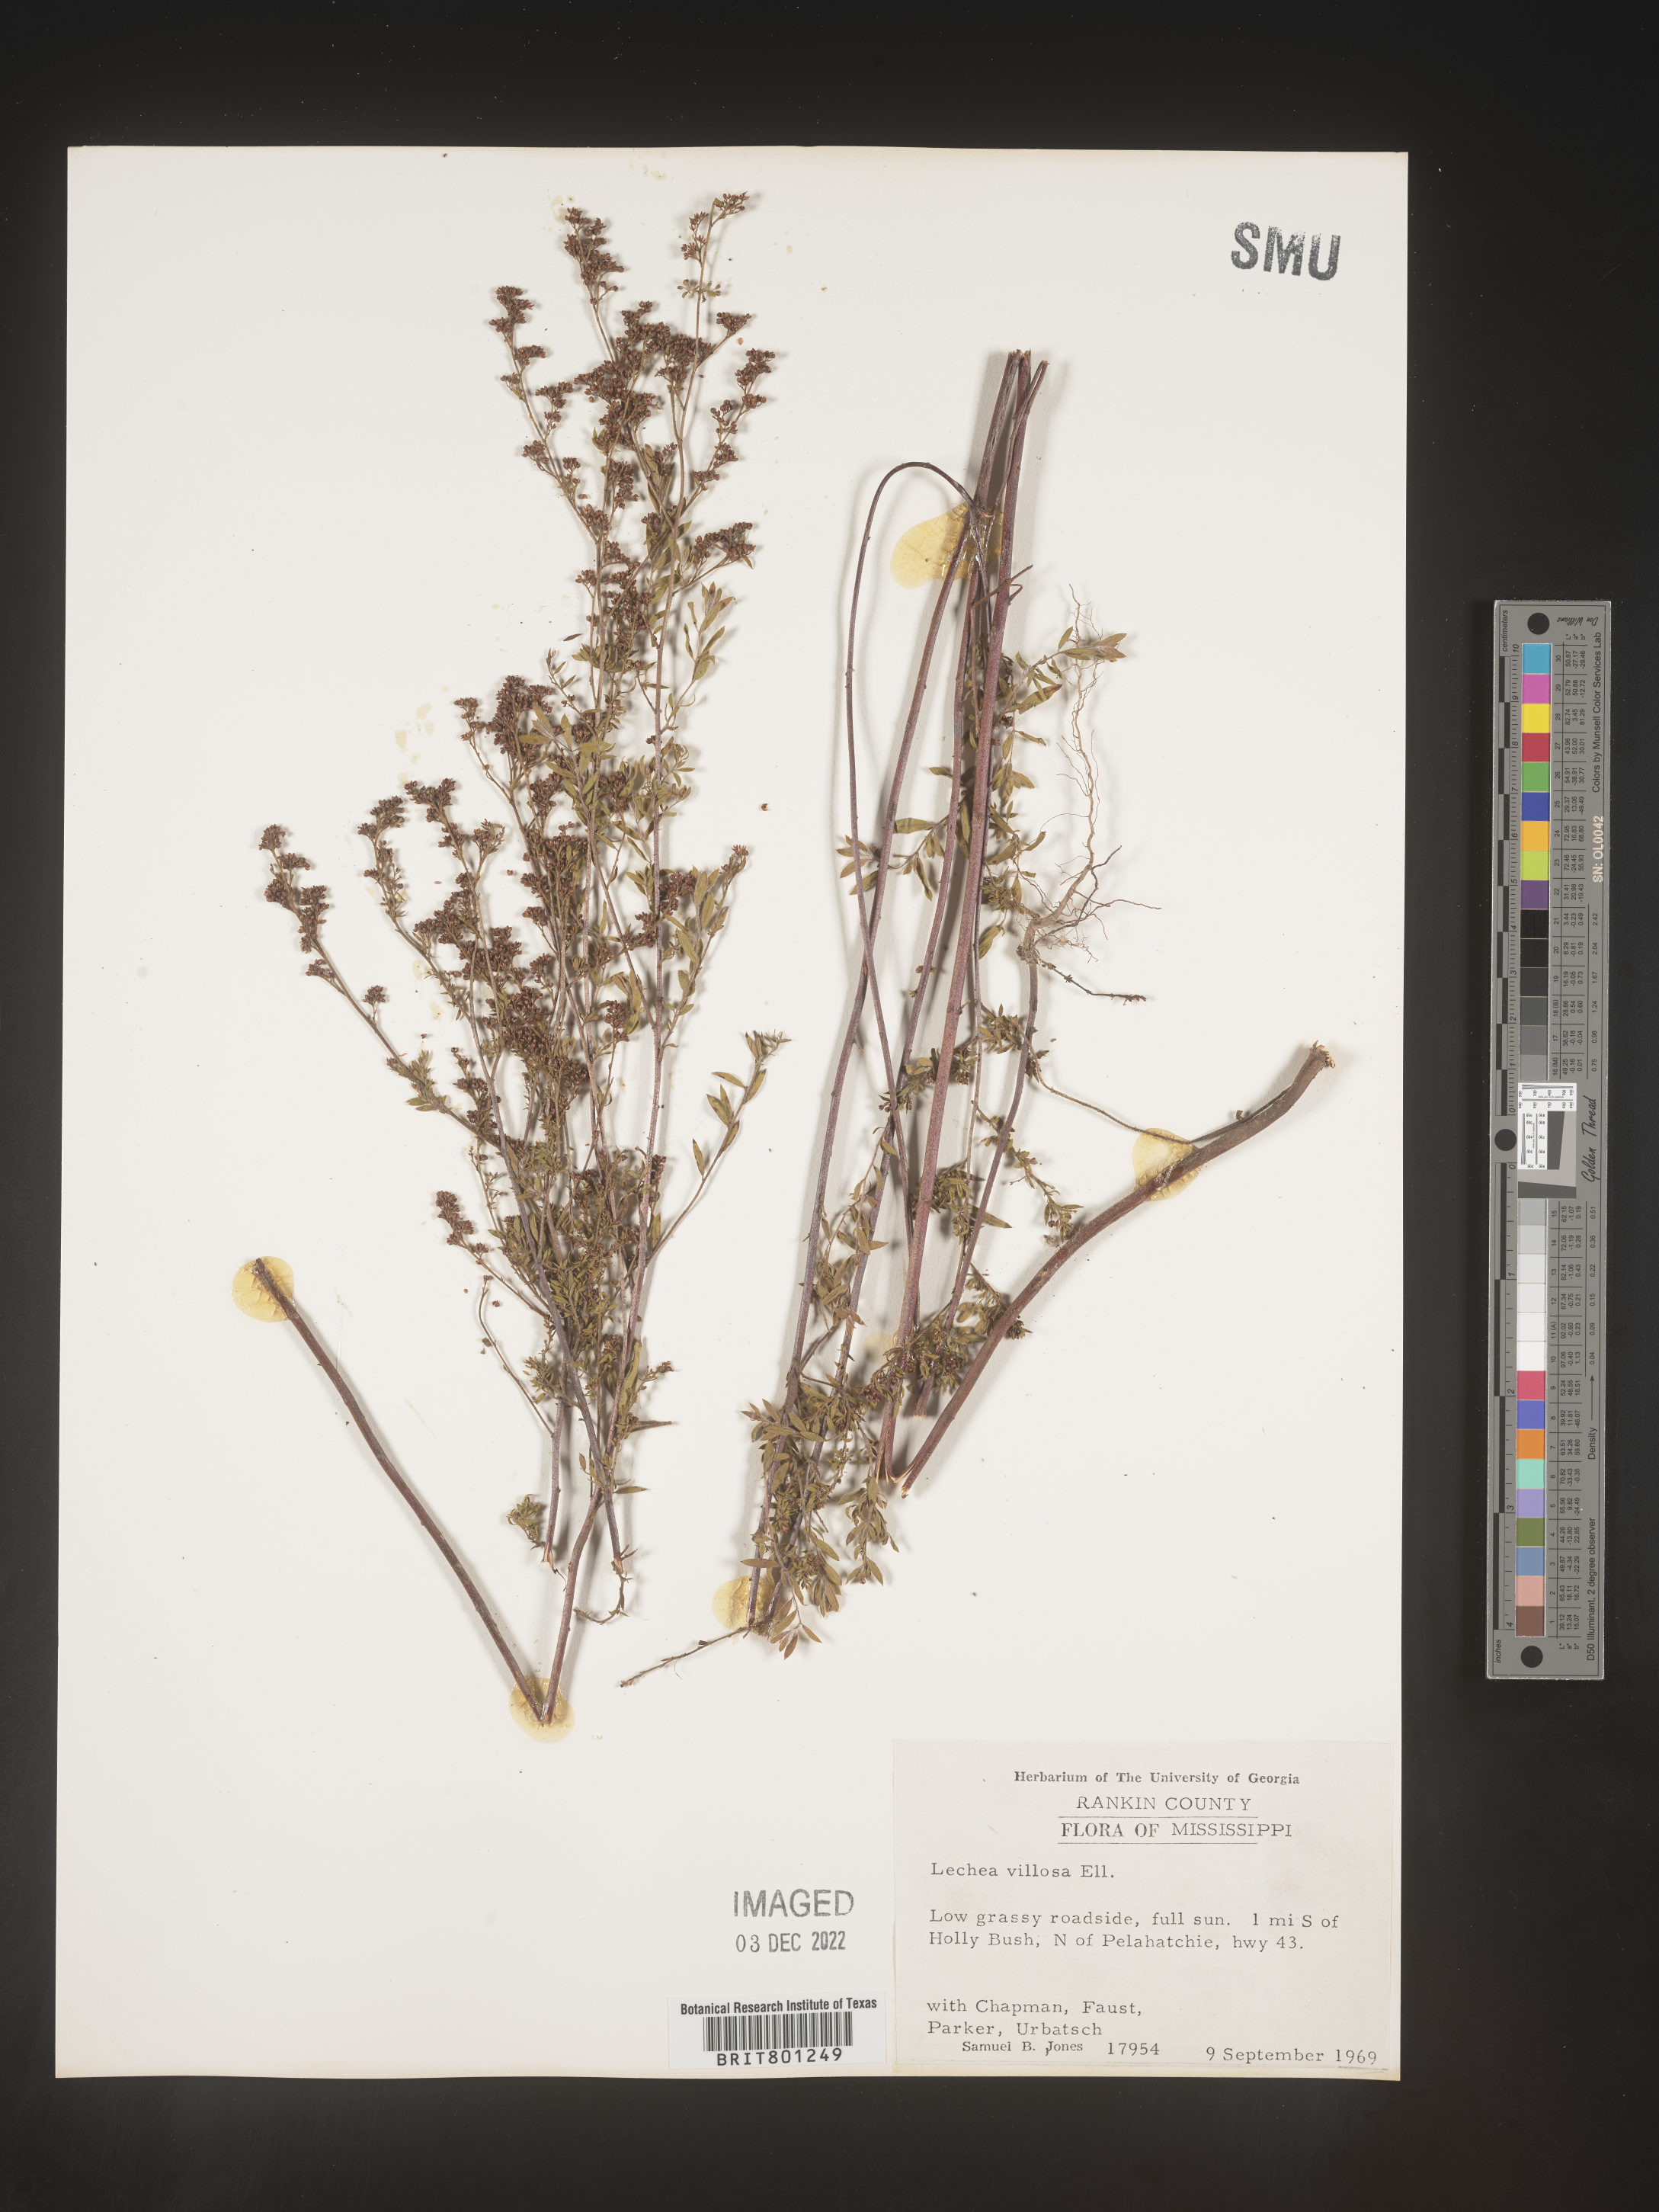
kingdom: Plantae
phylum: Tracheophyta
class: Magnoliopsida
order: Malvales
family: Cistaceae
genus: Lechea
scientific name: Lechea mucronata
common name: Hairy pinweed
